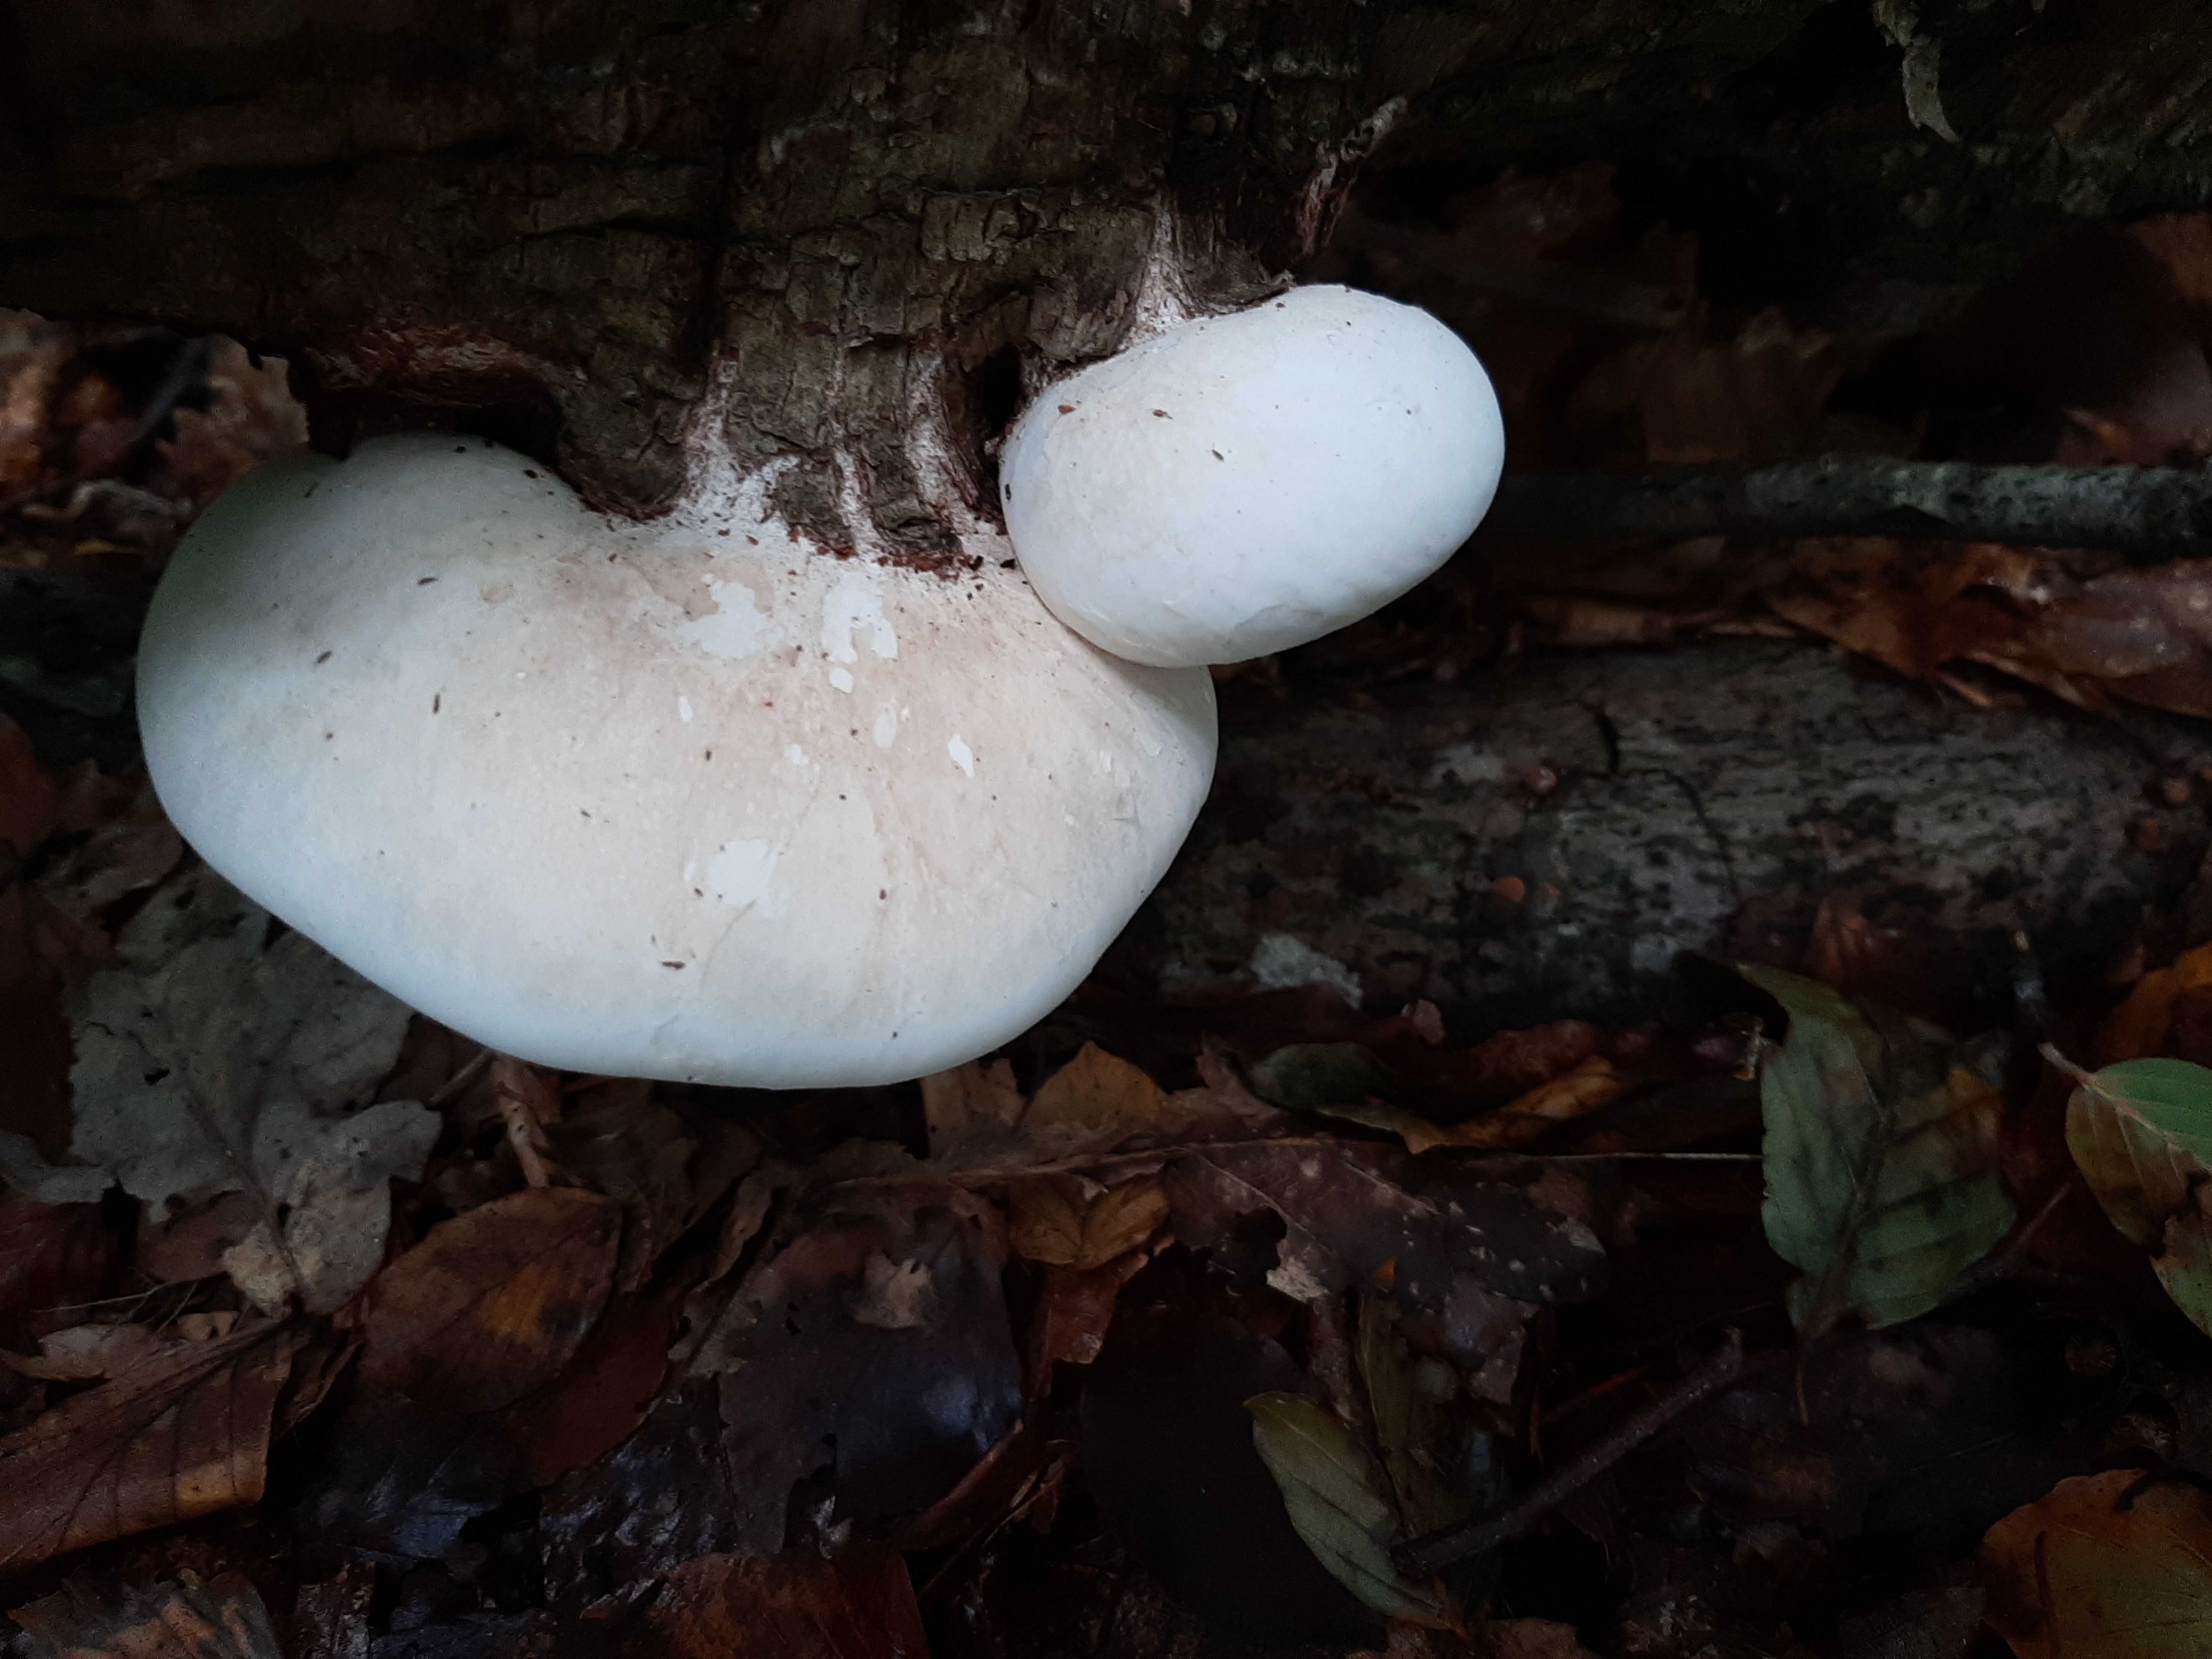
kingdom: Fungi
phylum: Basidiomycota
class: Agaricomycetes
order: Polyporales
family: Fomitopsidaceae
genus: Fomitopsis
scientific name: Fomitopsis betulina
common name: birkeporesvamp
